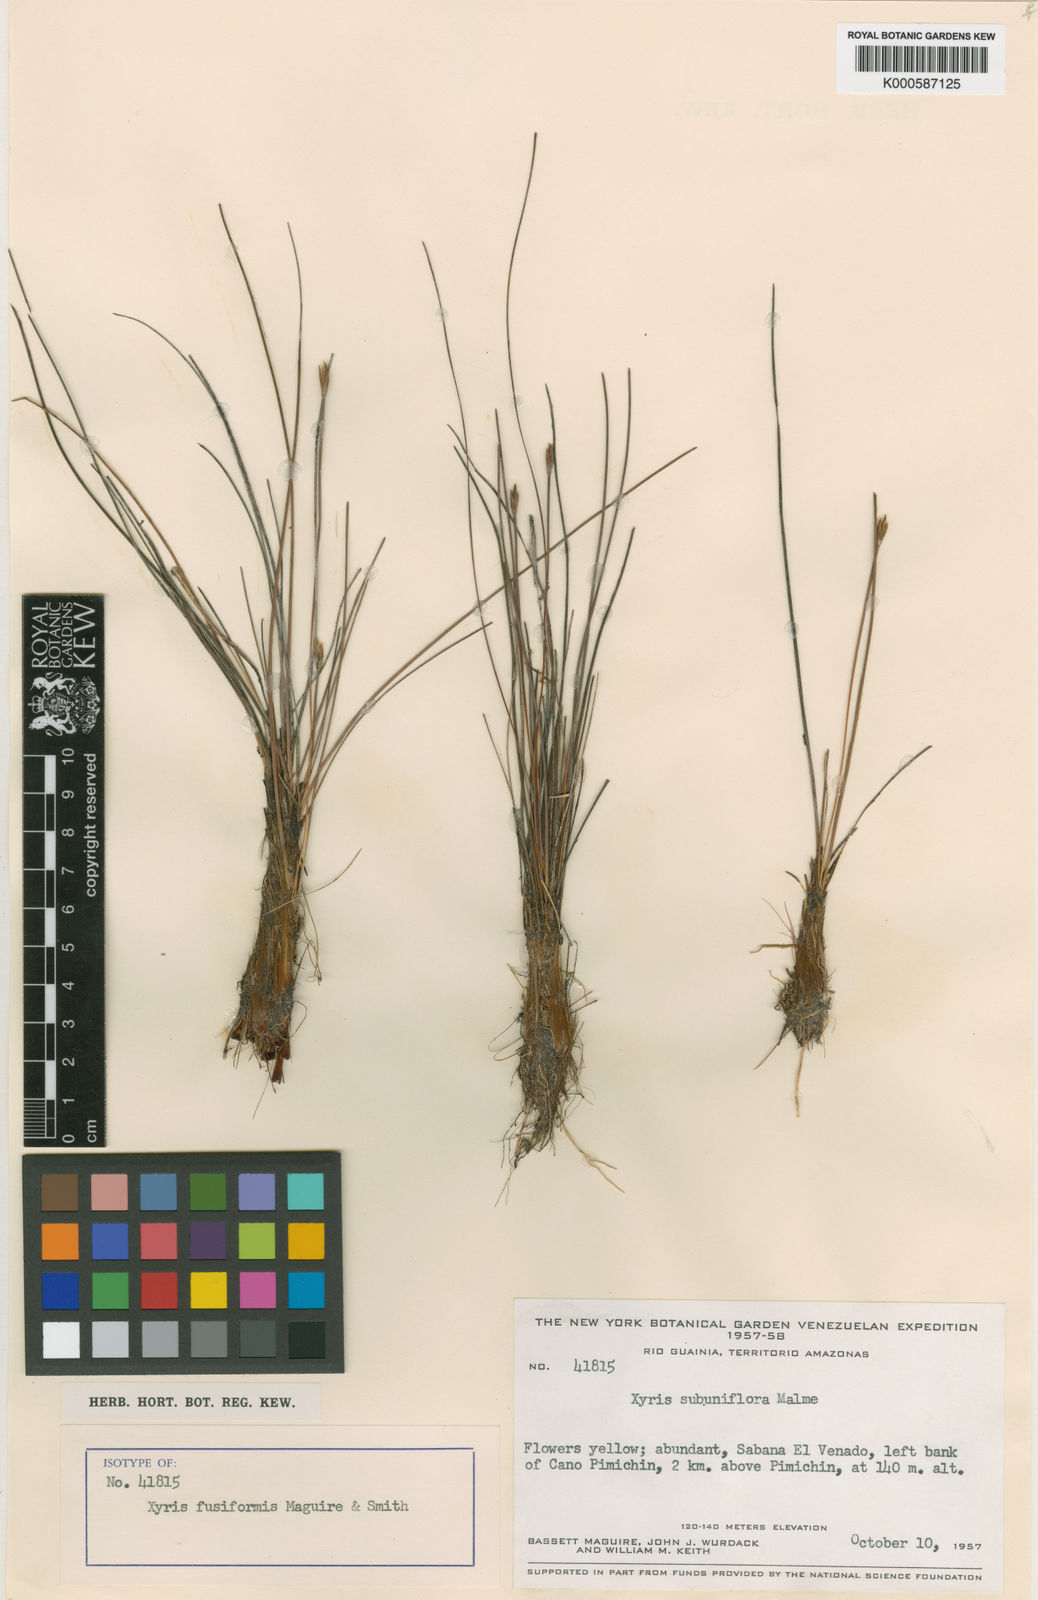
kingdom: Plantae
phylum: Tracheophyta
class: Liliopsida
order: Poales
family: Xyridaceae
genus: Xyris
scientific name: Xyris oxylepis
